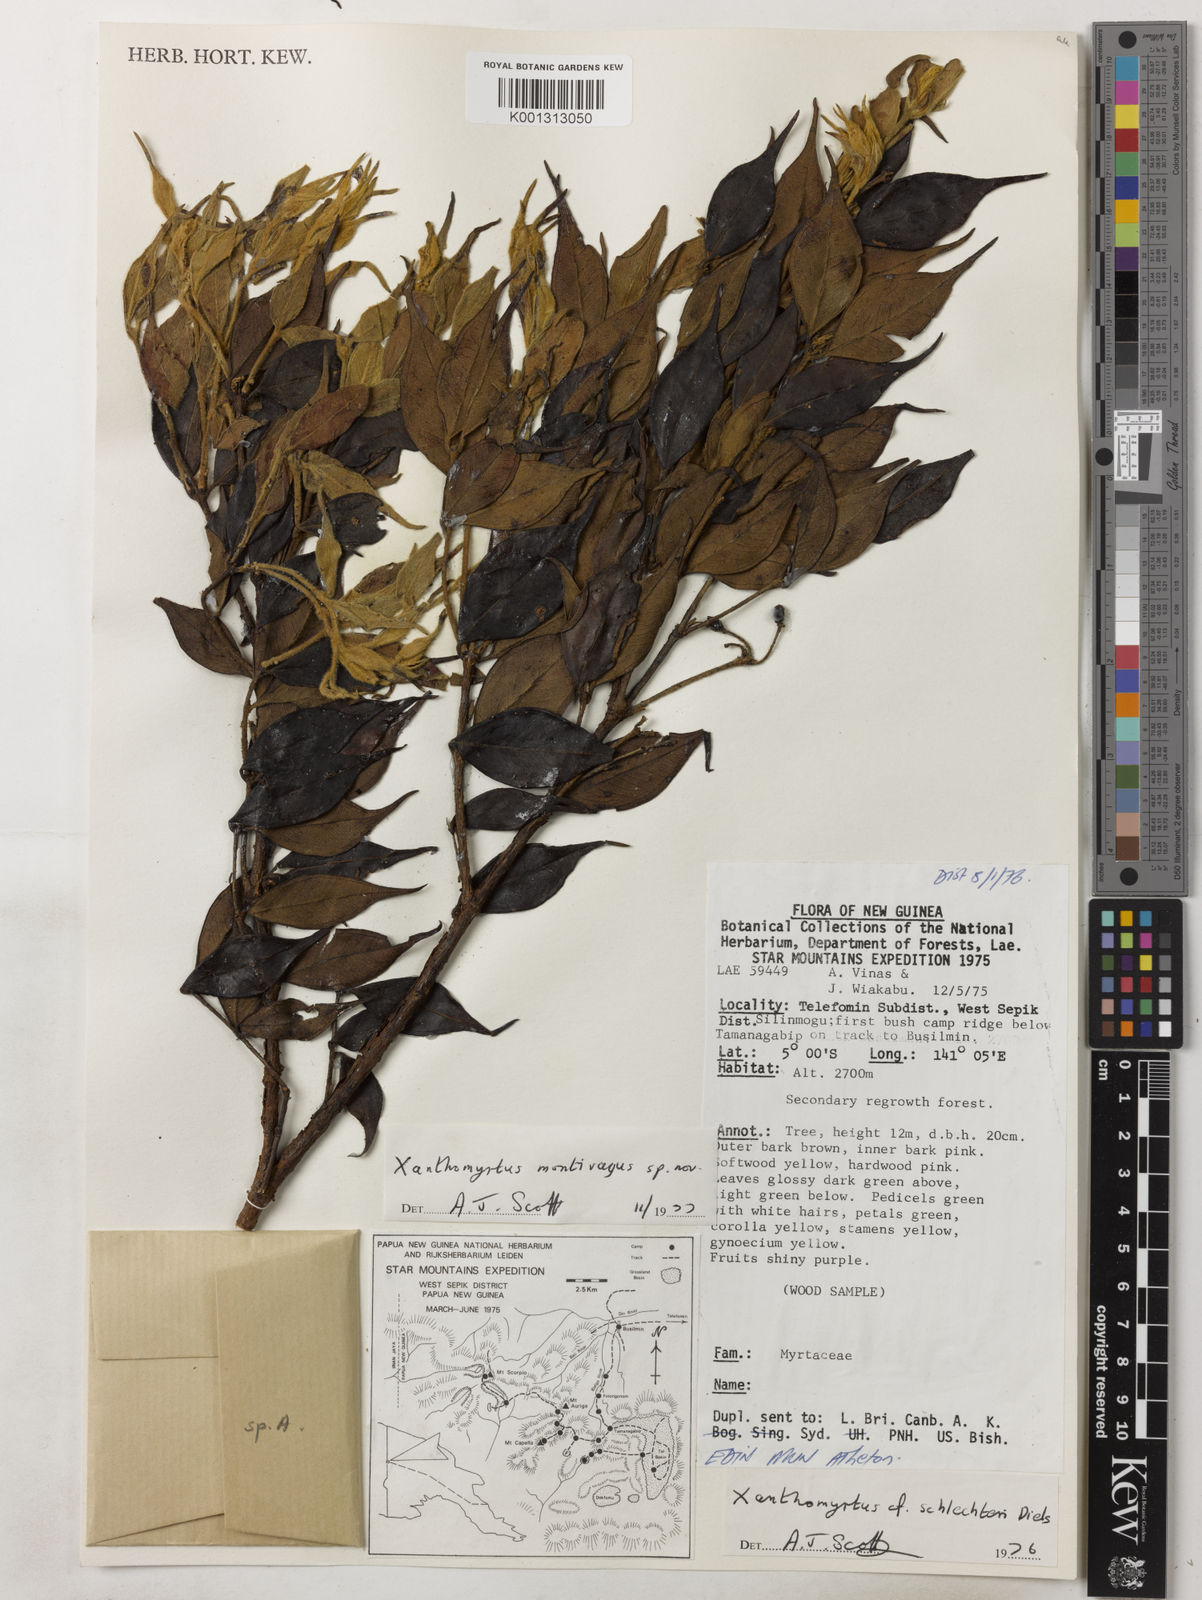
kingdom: Plantae
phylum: Tracheophyta
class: Magnoliopsida
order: Myrtales
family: Myrtaceae
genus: Xanthomyrtus
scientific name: Xanthomyrtus montivaga
